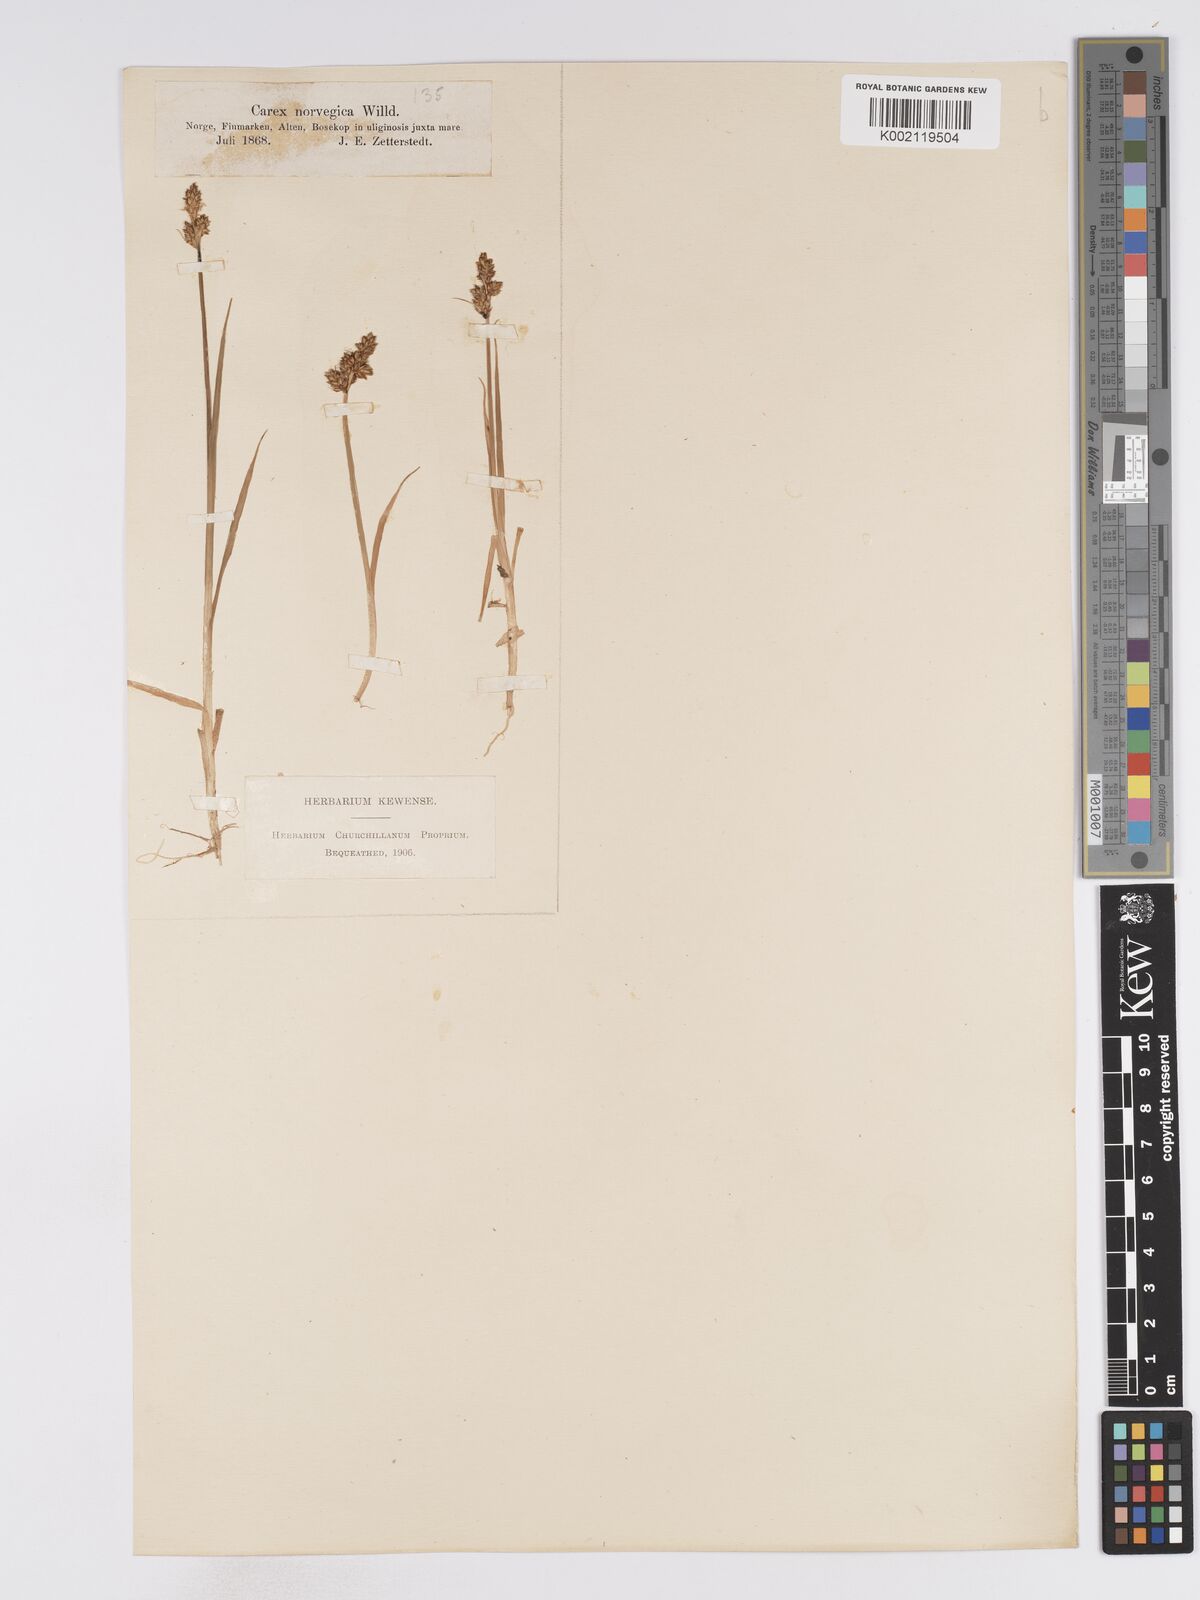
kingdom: Plantae
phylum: Tracheophyta
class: Liliopsida
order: Poales
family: Cyperaceae
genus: Carex
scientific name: Carex mackenziei
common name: Mackenzie's sedge
